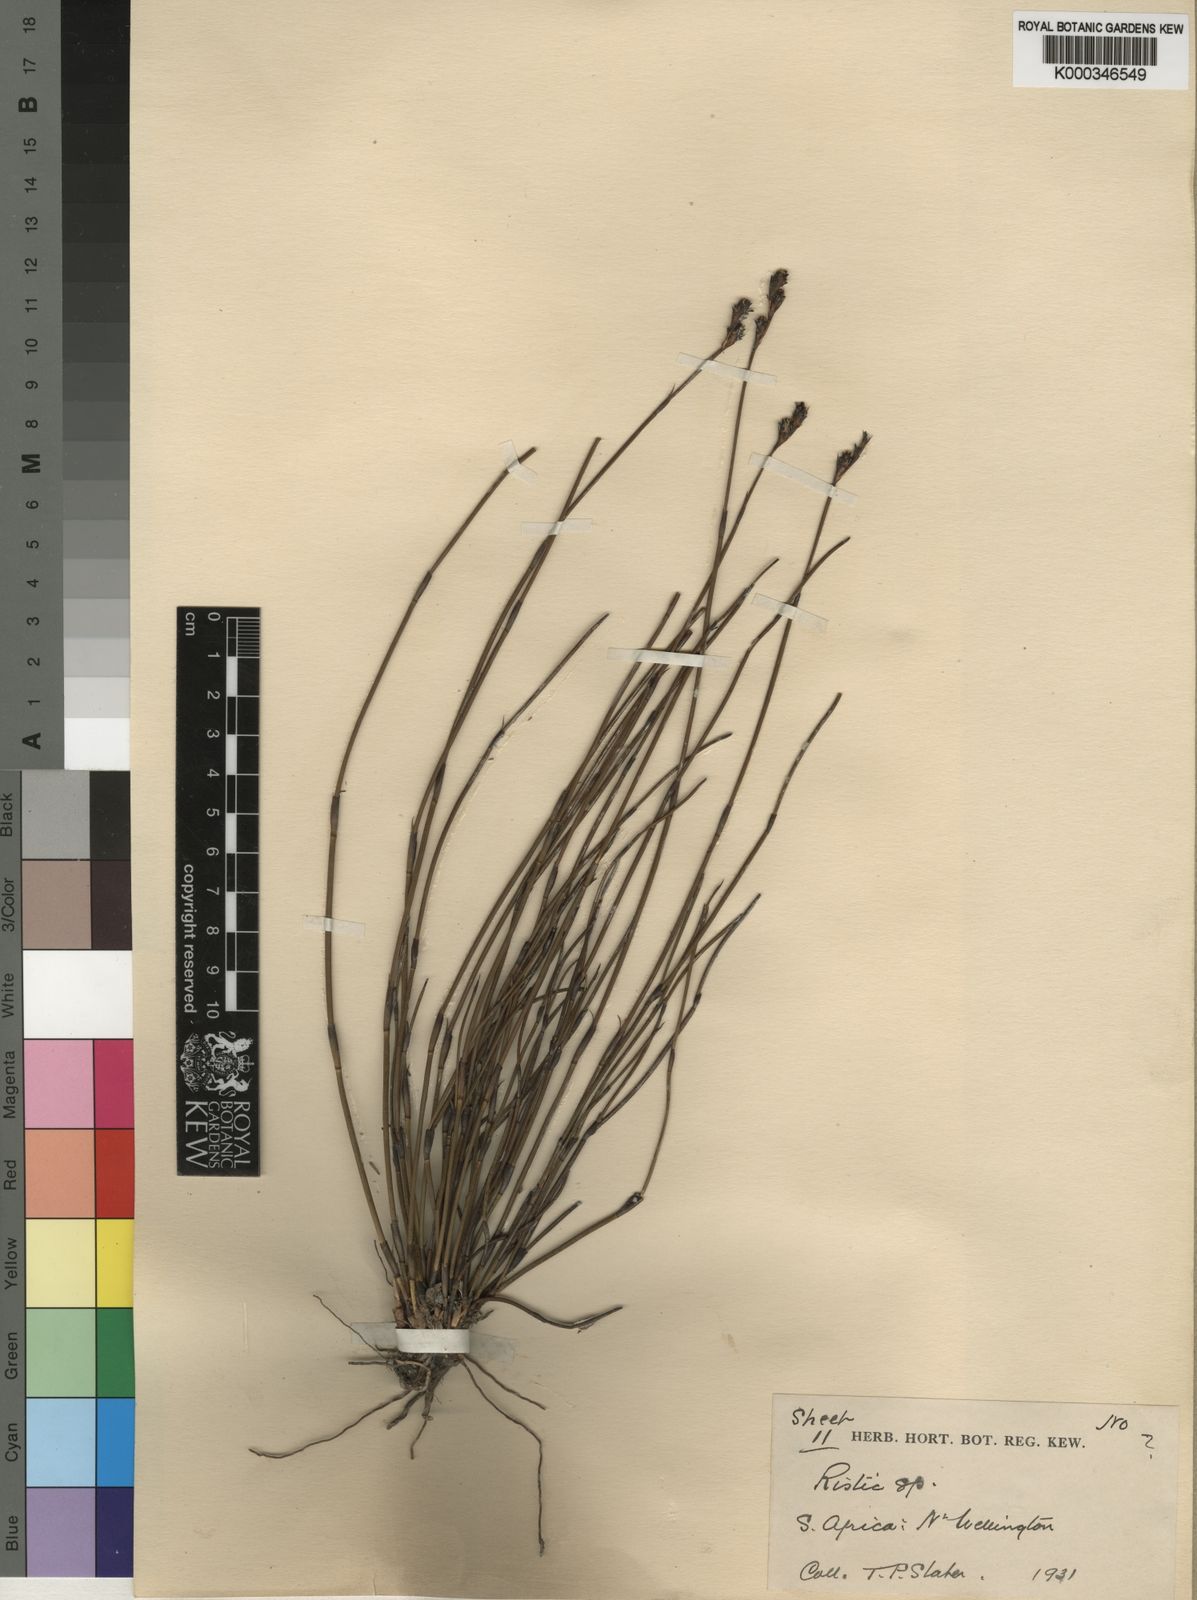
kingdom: Plantae
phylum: Tracheophyta
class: Liliopsida
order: Poales
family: Restionaceae
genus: Restio
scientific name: Restio obscurus
